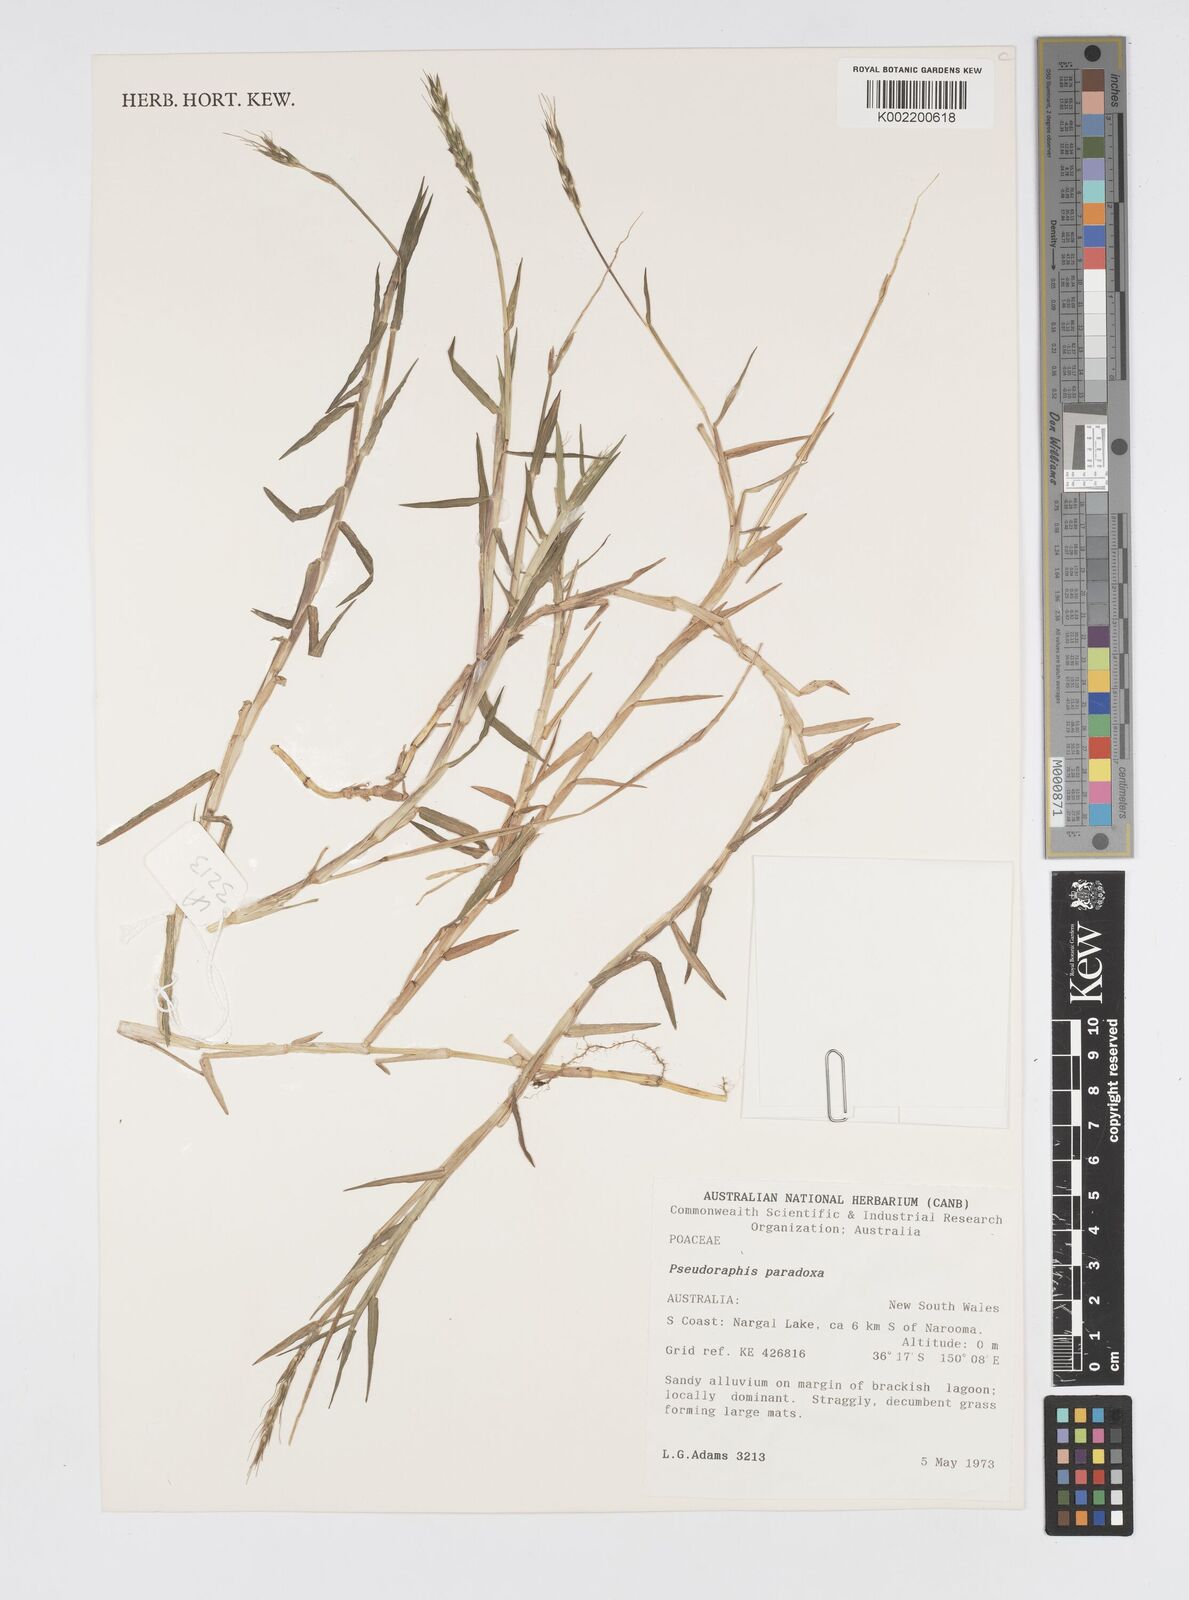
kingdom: Plantae
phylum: Tracheophyta
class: Liliopsida
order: Poales
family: Poaceae
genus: Pseudoraphis
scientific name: Pseudoraphis paradoxa
